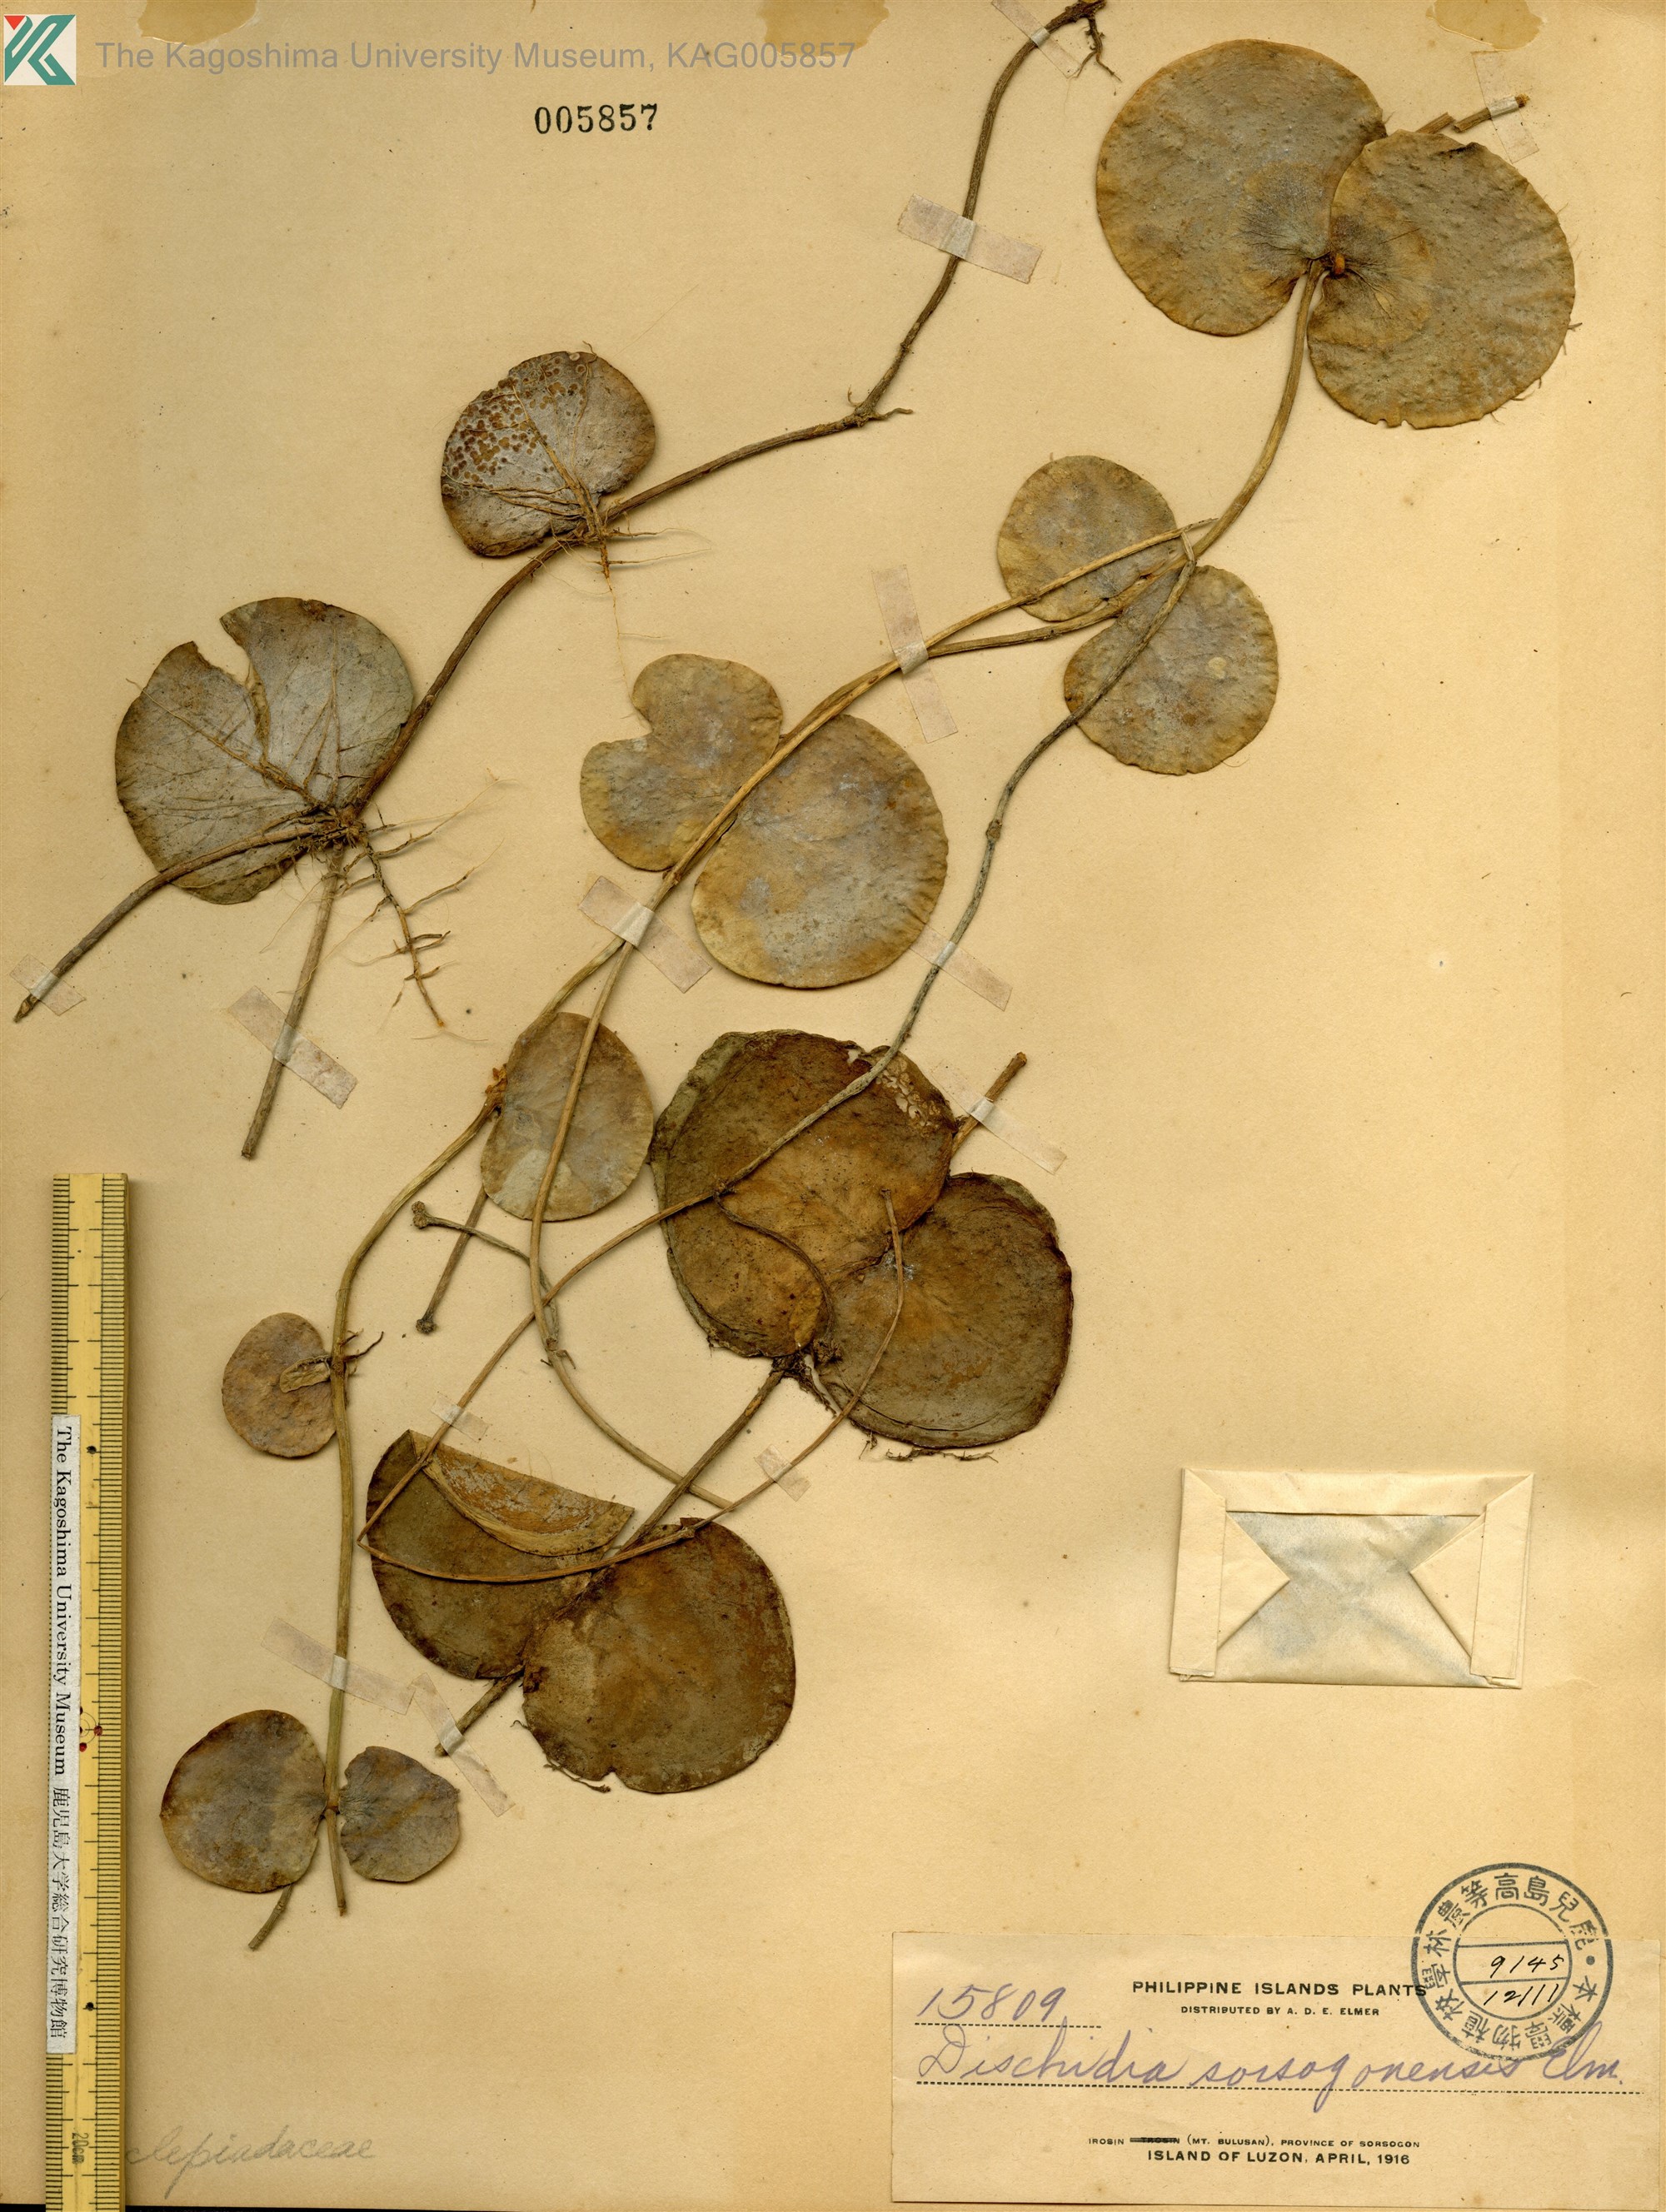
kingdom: Plantae
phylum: Tracheophyta
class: Magnoliopsida
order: Gentianales
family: Apocynaceae
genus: Dischidia
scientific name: Dischidia sorsogonensis
